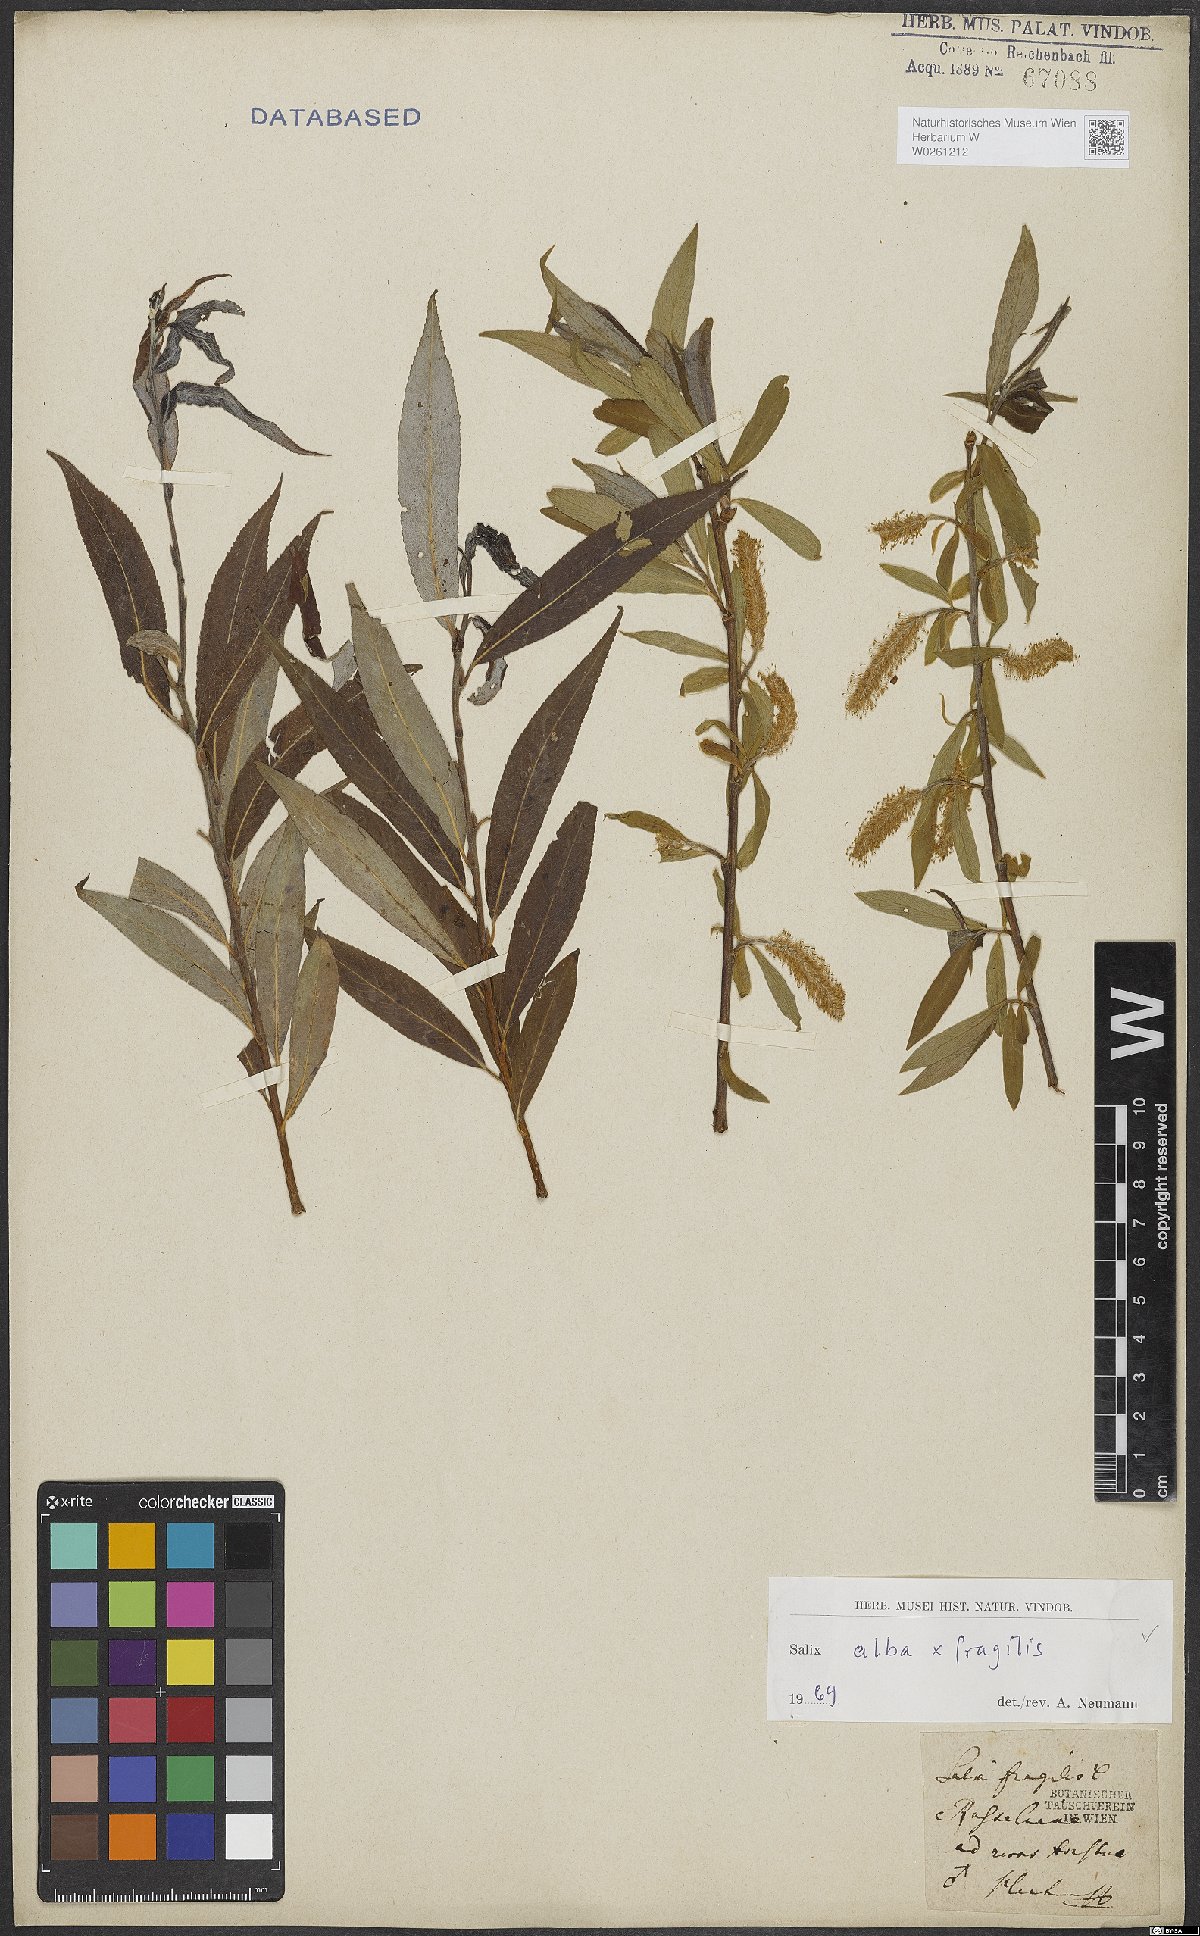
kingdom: Plantae
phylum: Tracheophyta
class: Magnoliopsida
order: Malpighiales
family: Salicaceae
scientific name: Salicaceae
